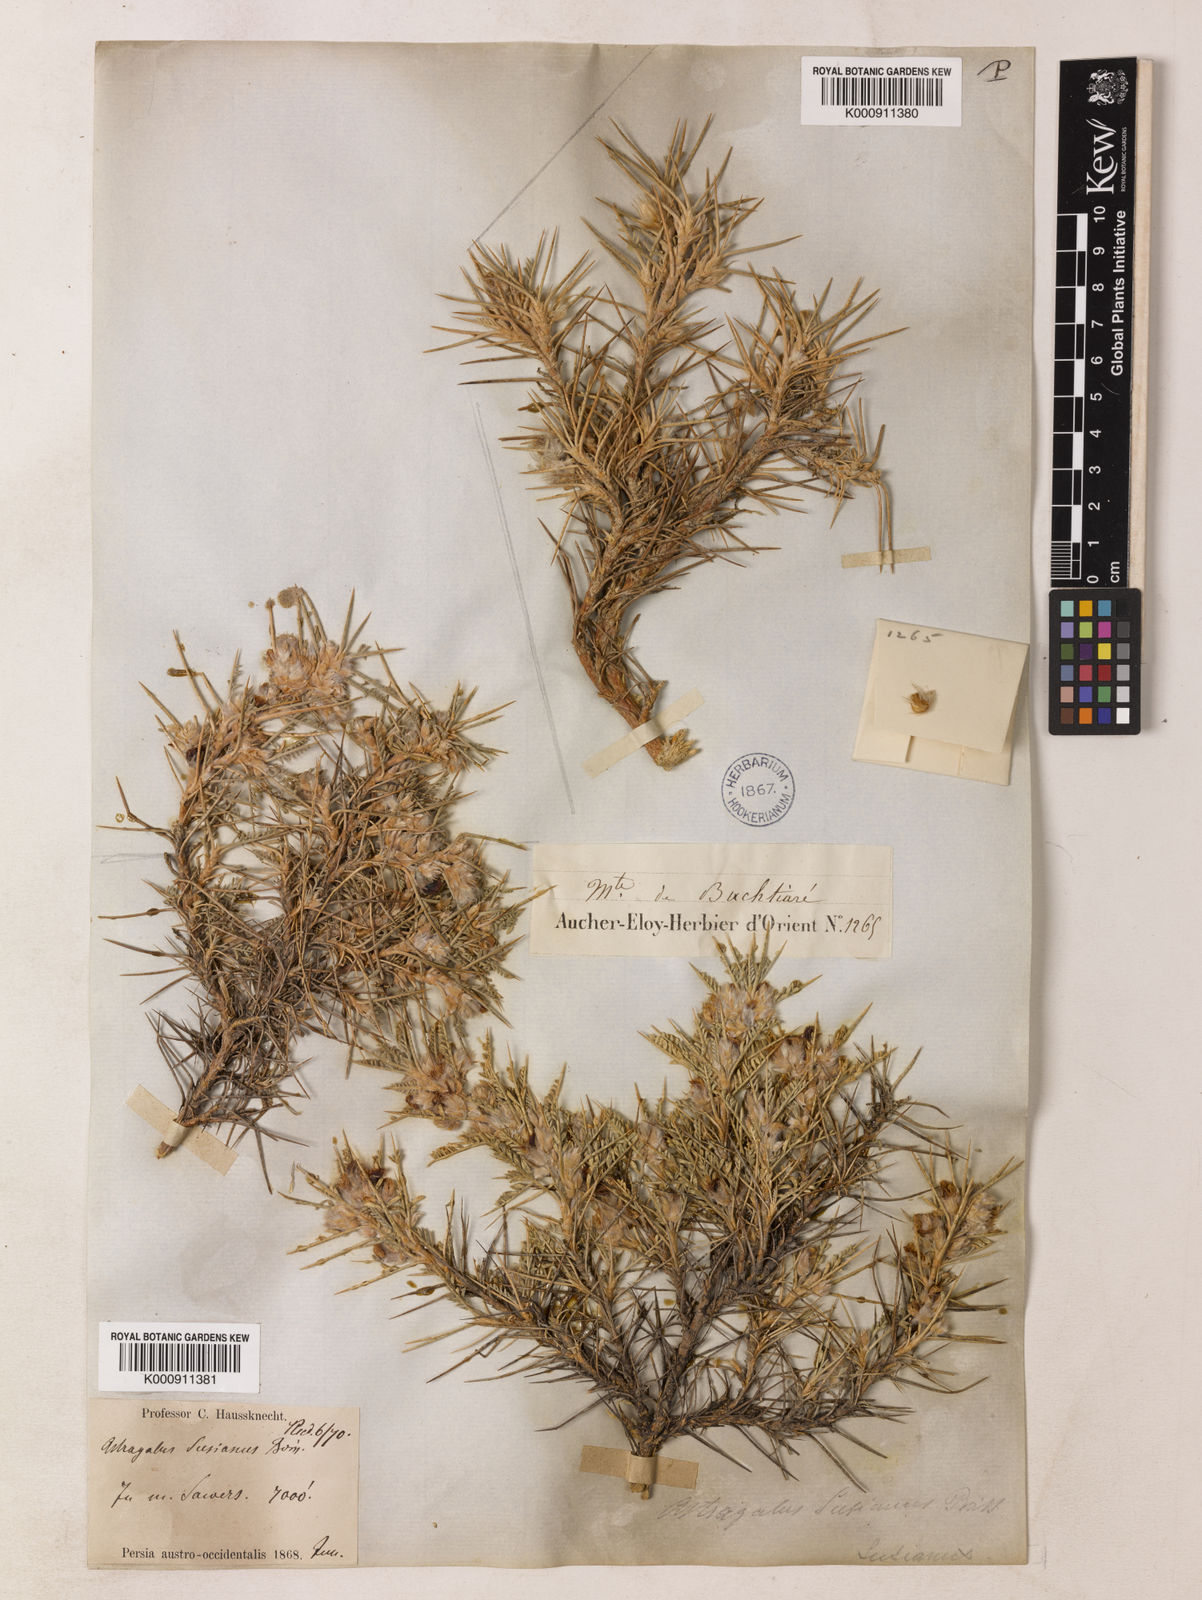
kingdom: Plantae
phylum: Tracheophyta
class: Magnoliopsida
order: Fabales
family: Fabaceae
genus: Astragalus
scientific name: Astragalus susianus
